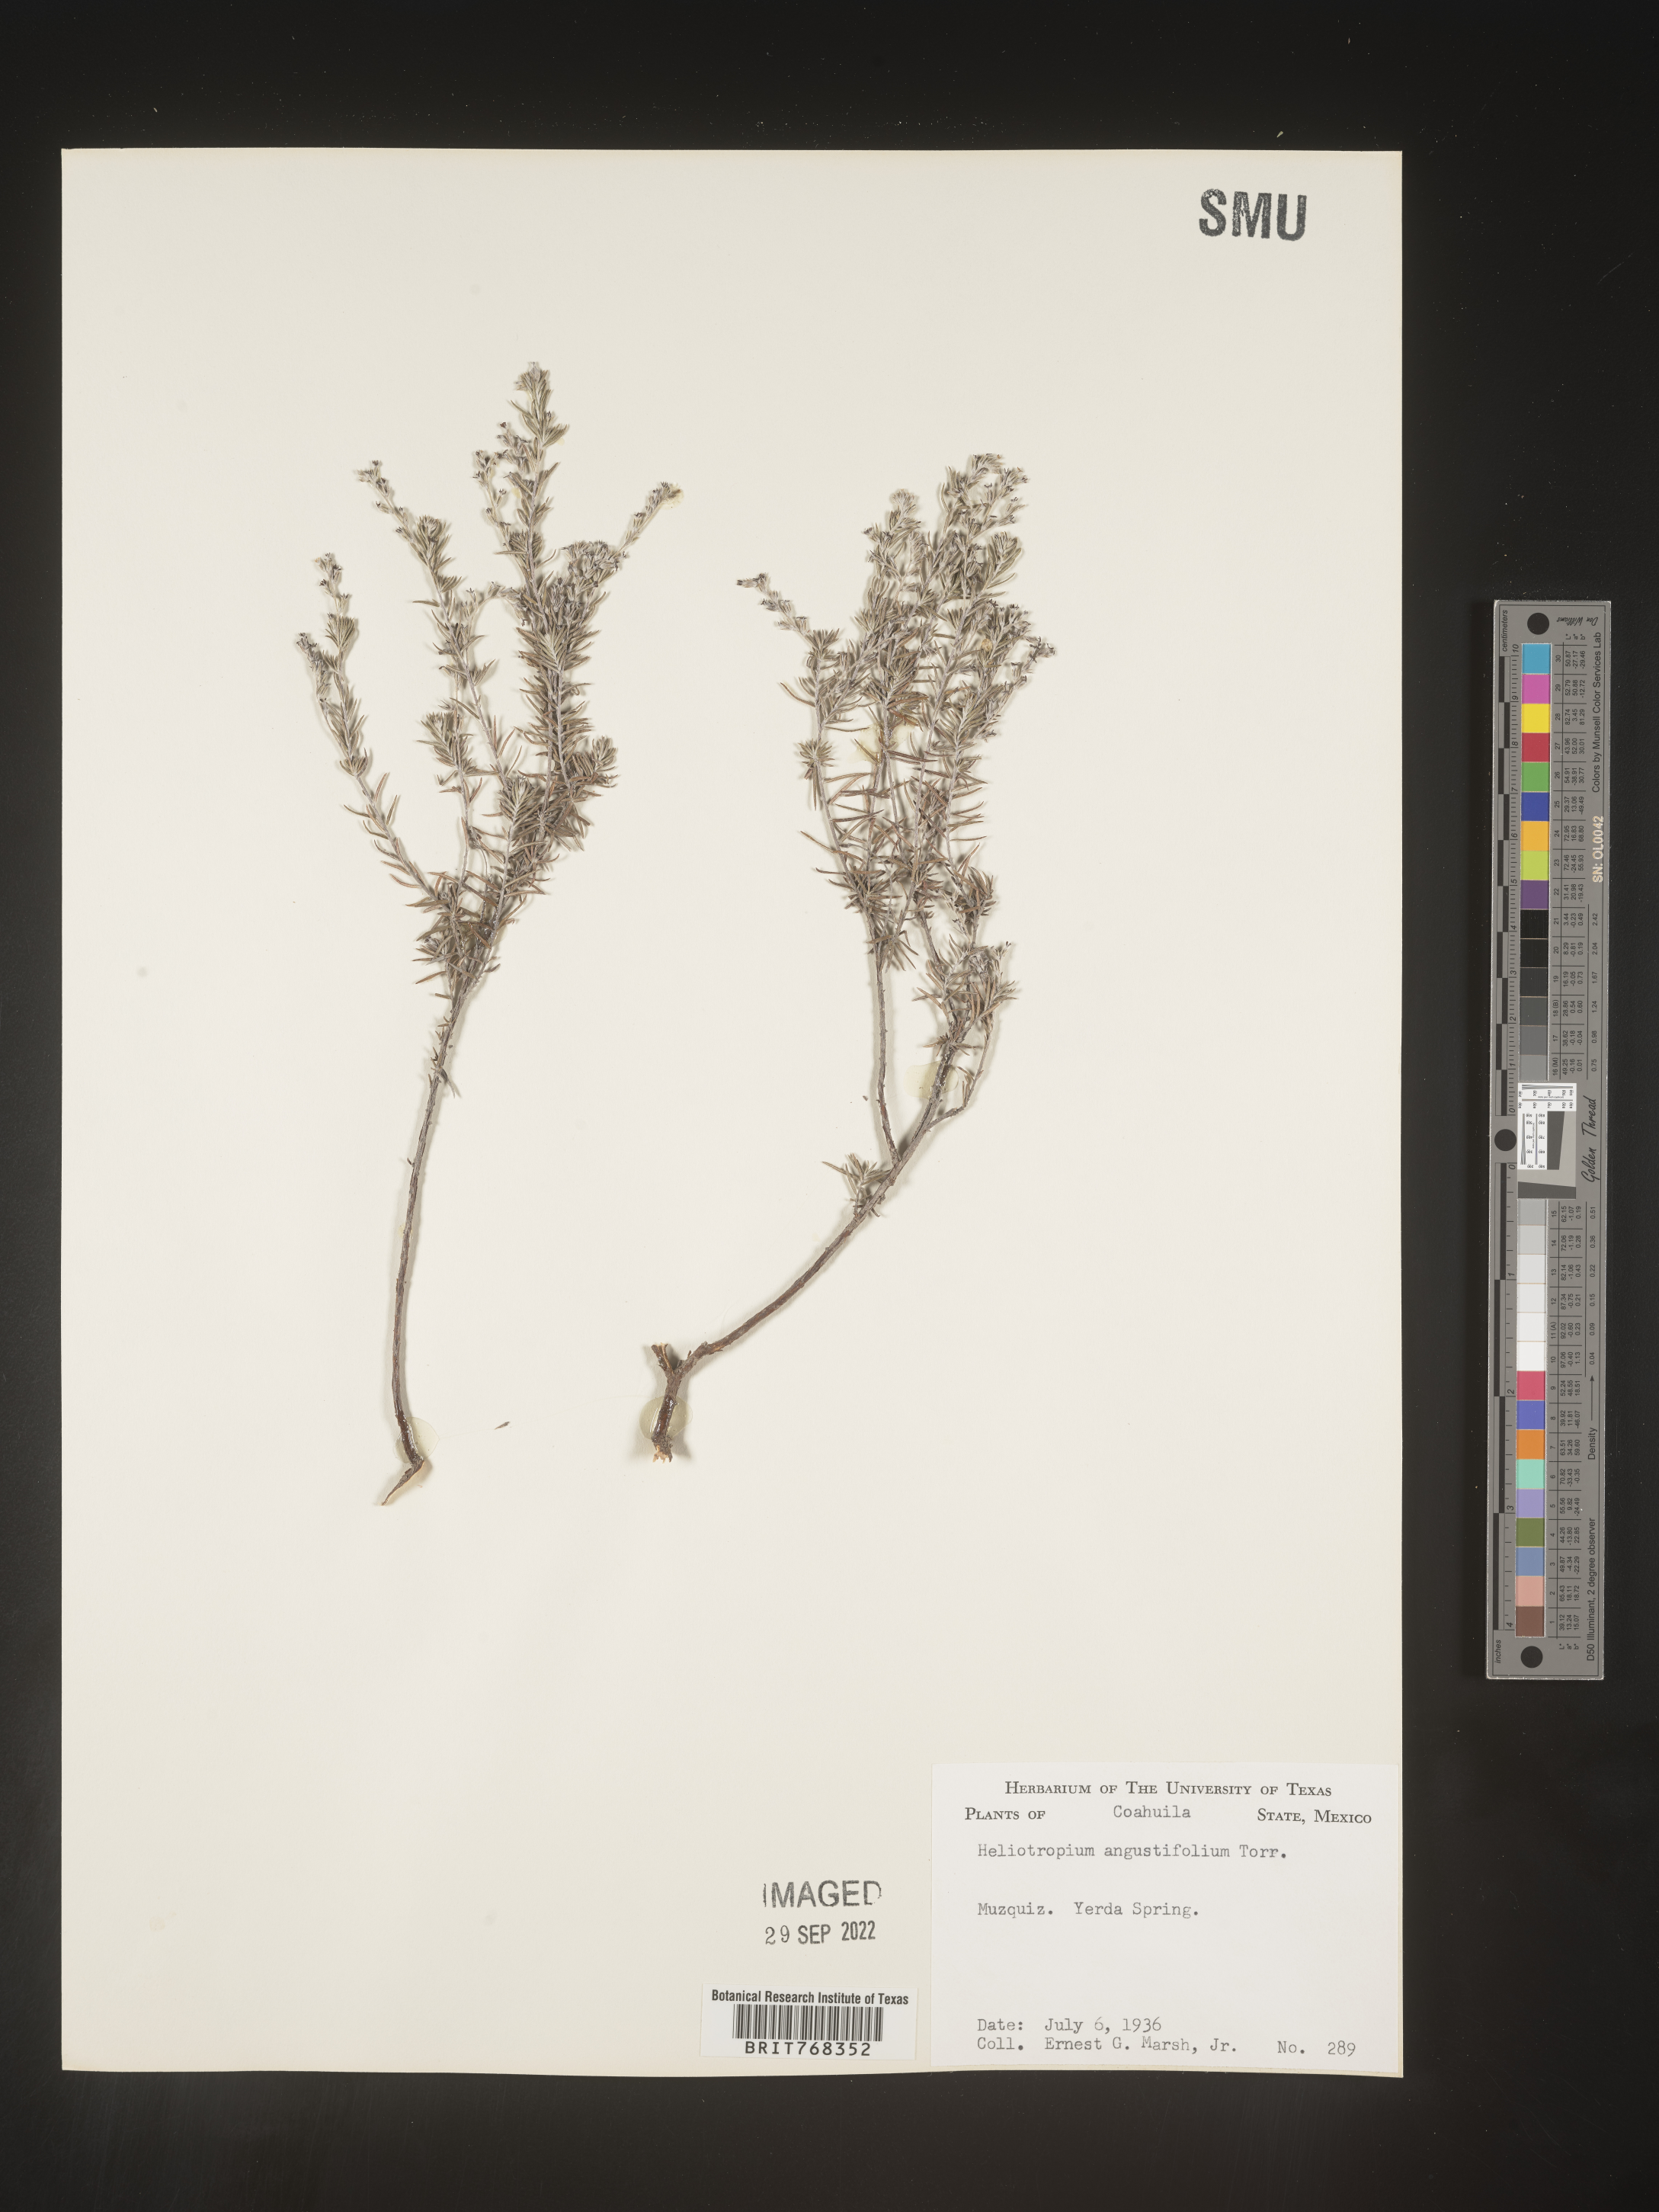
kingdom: Plantae
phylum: Tracheophyta
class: Magnoliopsida
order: Boraginales
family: Heliotropiaceae
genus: Heliotropium
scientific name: Heliotropium
